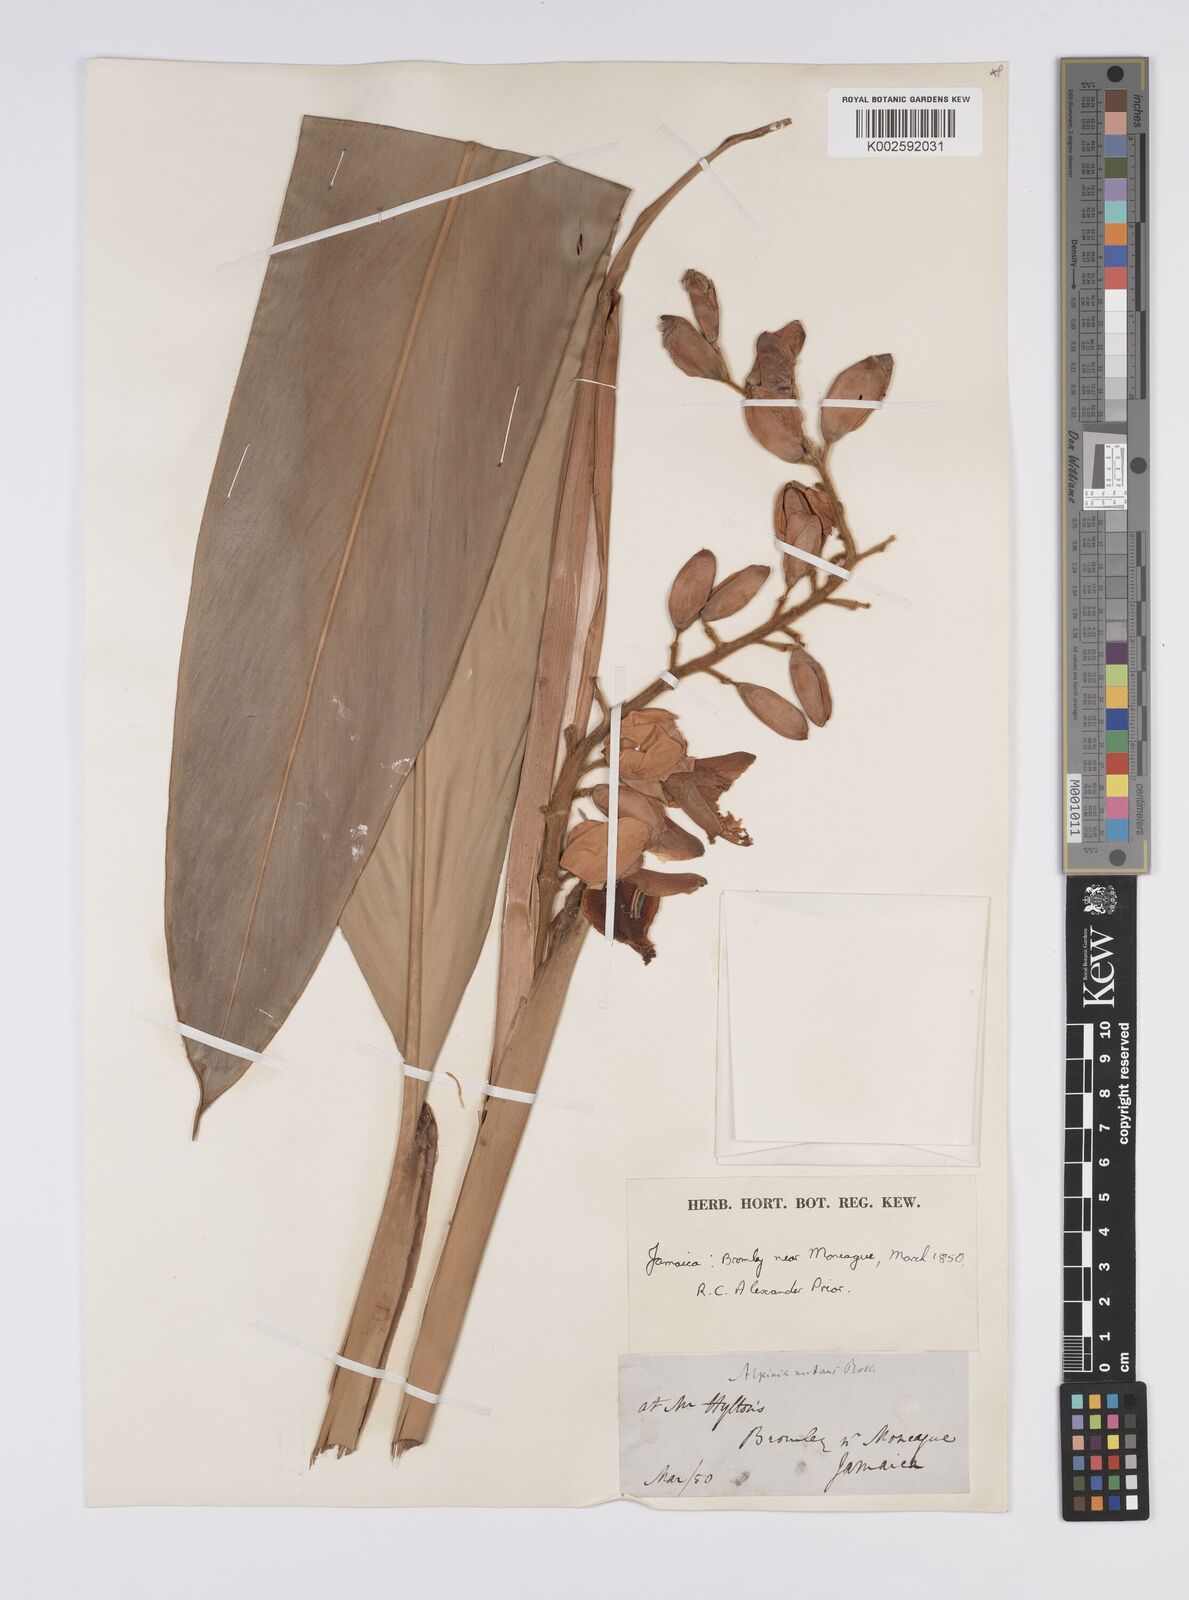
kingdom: Plantae
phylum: Tracheophyta
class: Liliopsida
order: Zingiberales
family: Zingiberaceae
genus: Alpinia
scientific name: Alpinia zerumbet
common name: Shellplant
